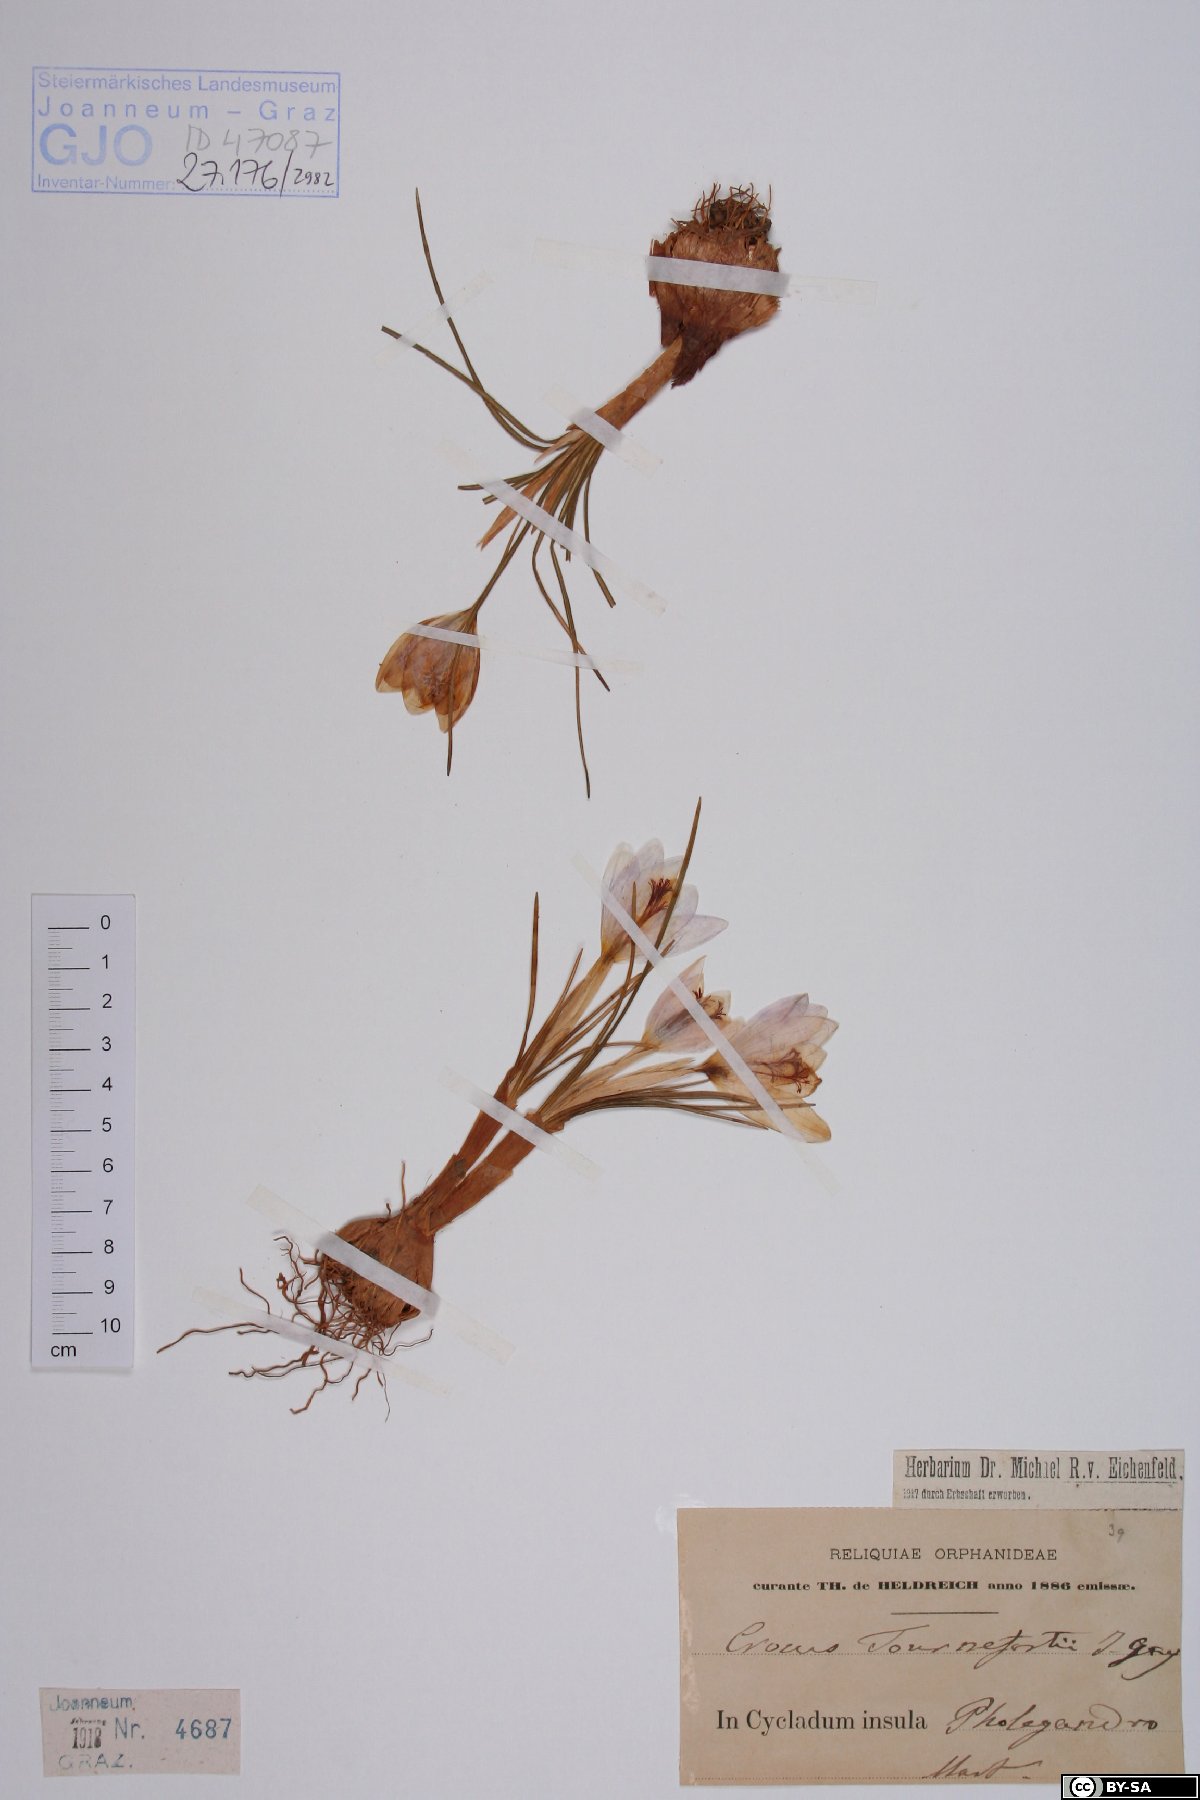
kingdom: Plantae
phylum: Tracheophyta
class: Liliopsida
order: Asparagales
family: Iridaceae
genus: Crocus
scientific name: Crocus tournefortii
